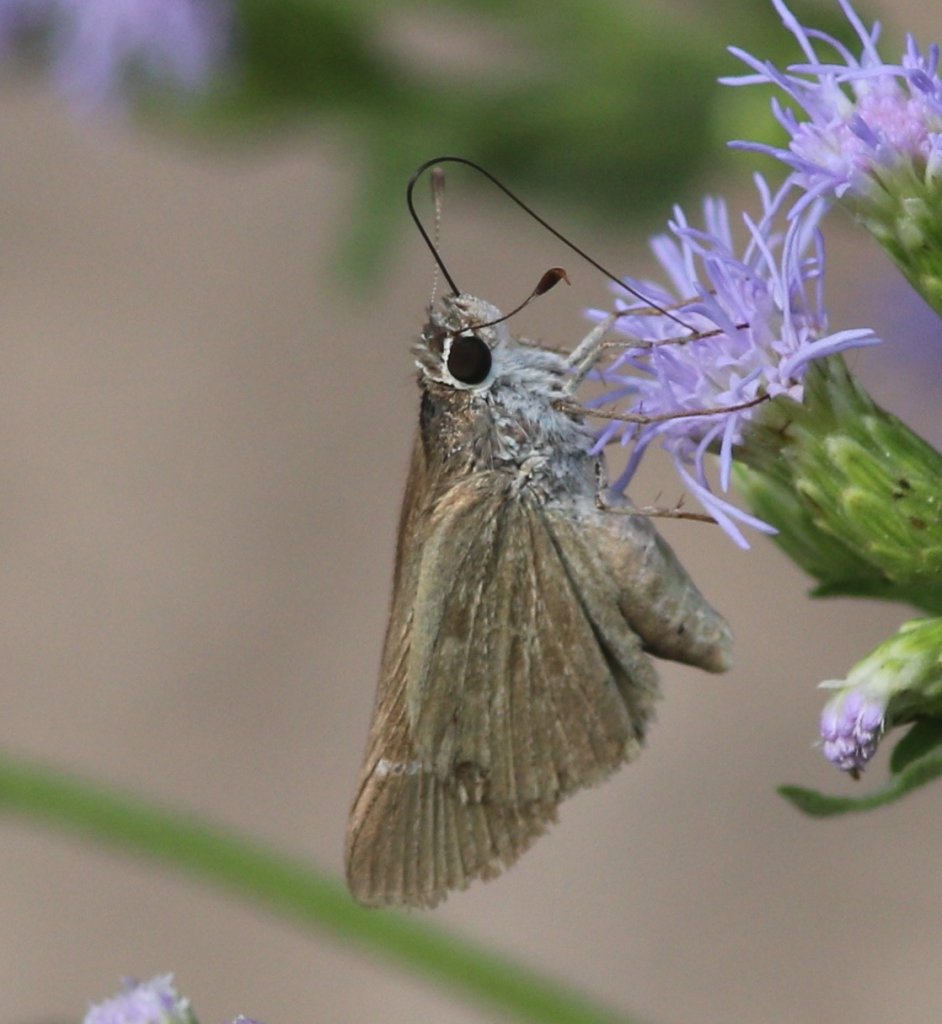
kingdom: Animalia
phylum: Arthropoda
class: Insecta
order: Lepidoptera
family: Hesperiidae
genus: Lerodea
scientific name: Lerodea eufala
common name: Eufala Skipper
